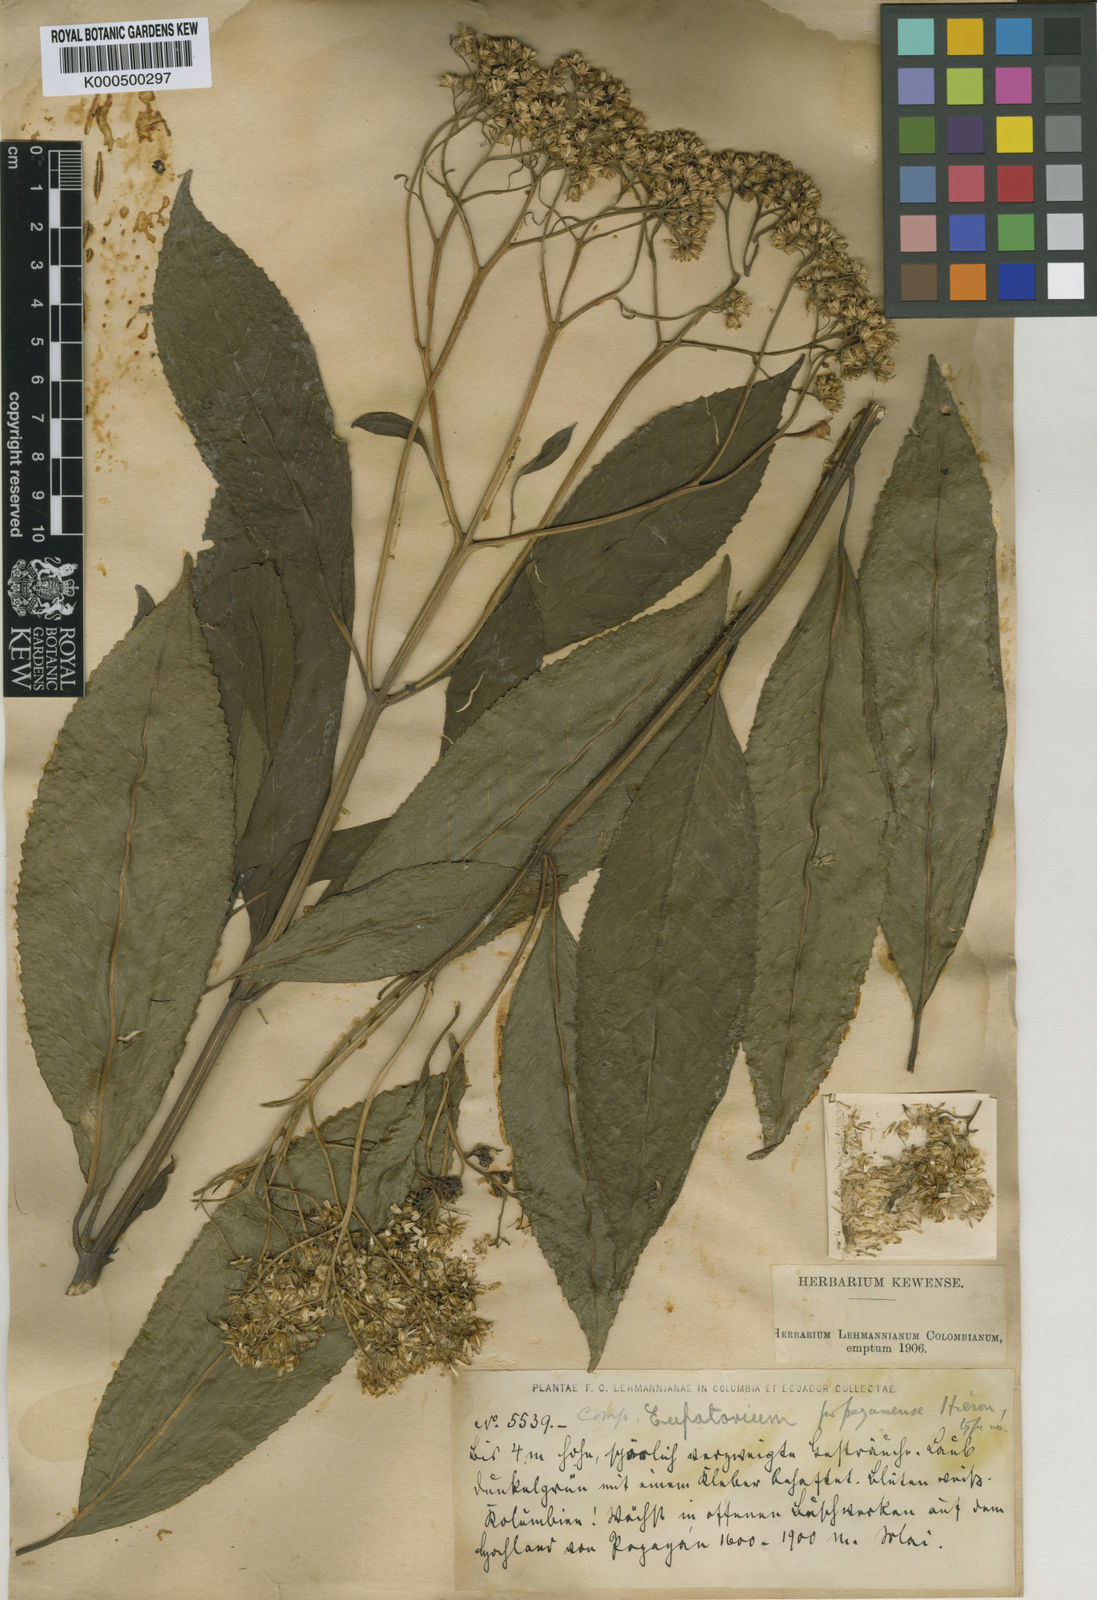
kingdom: Plantae
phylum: Tracheophyta
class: Magnoliopsida
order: Asterales
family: Asteraceae
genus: Ageratina
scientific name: Ageratina popayanensis
